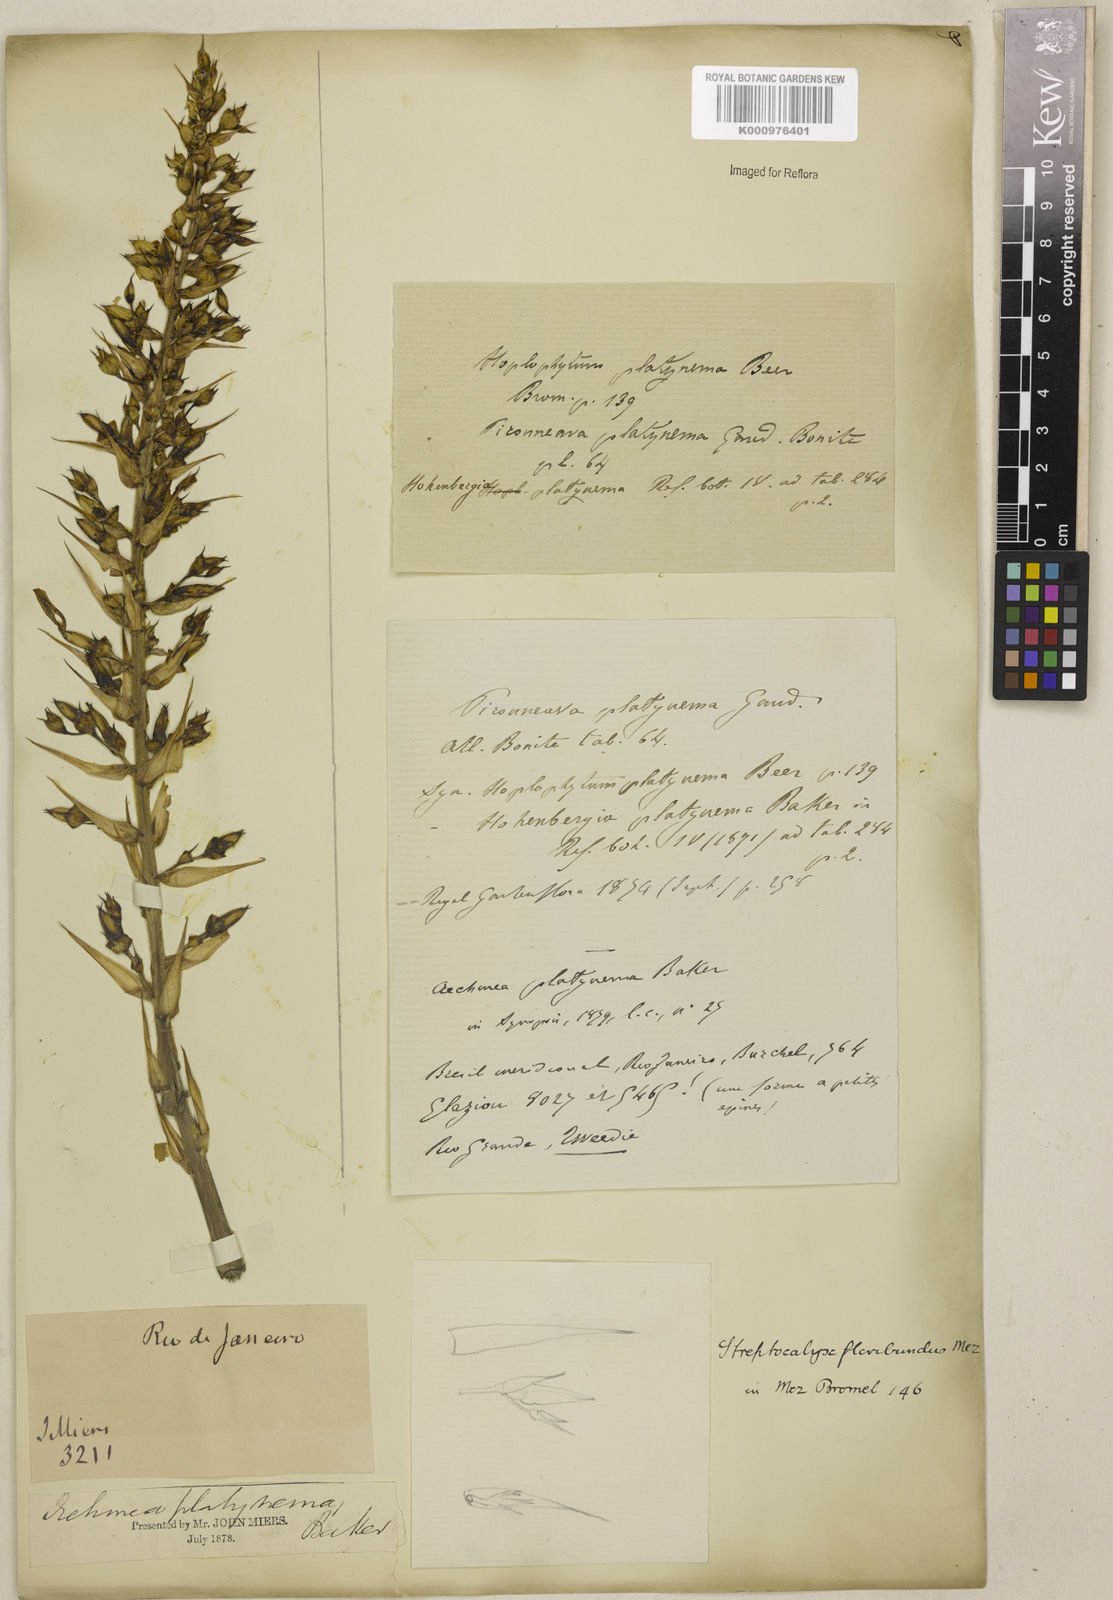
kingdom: Plantae
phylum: Tracheophyta
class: Liliopsida
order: Poales
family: Bromeliaceae
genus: Aechmea
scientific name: Aechmea floribunda
